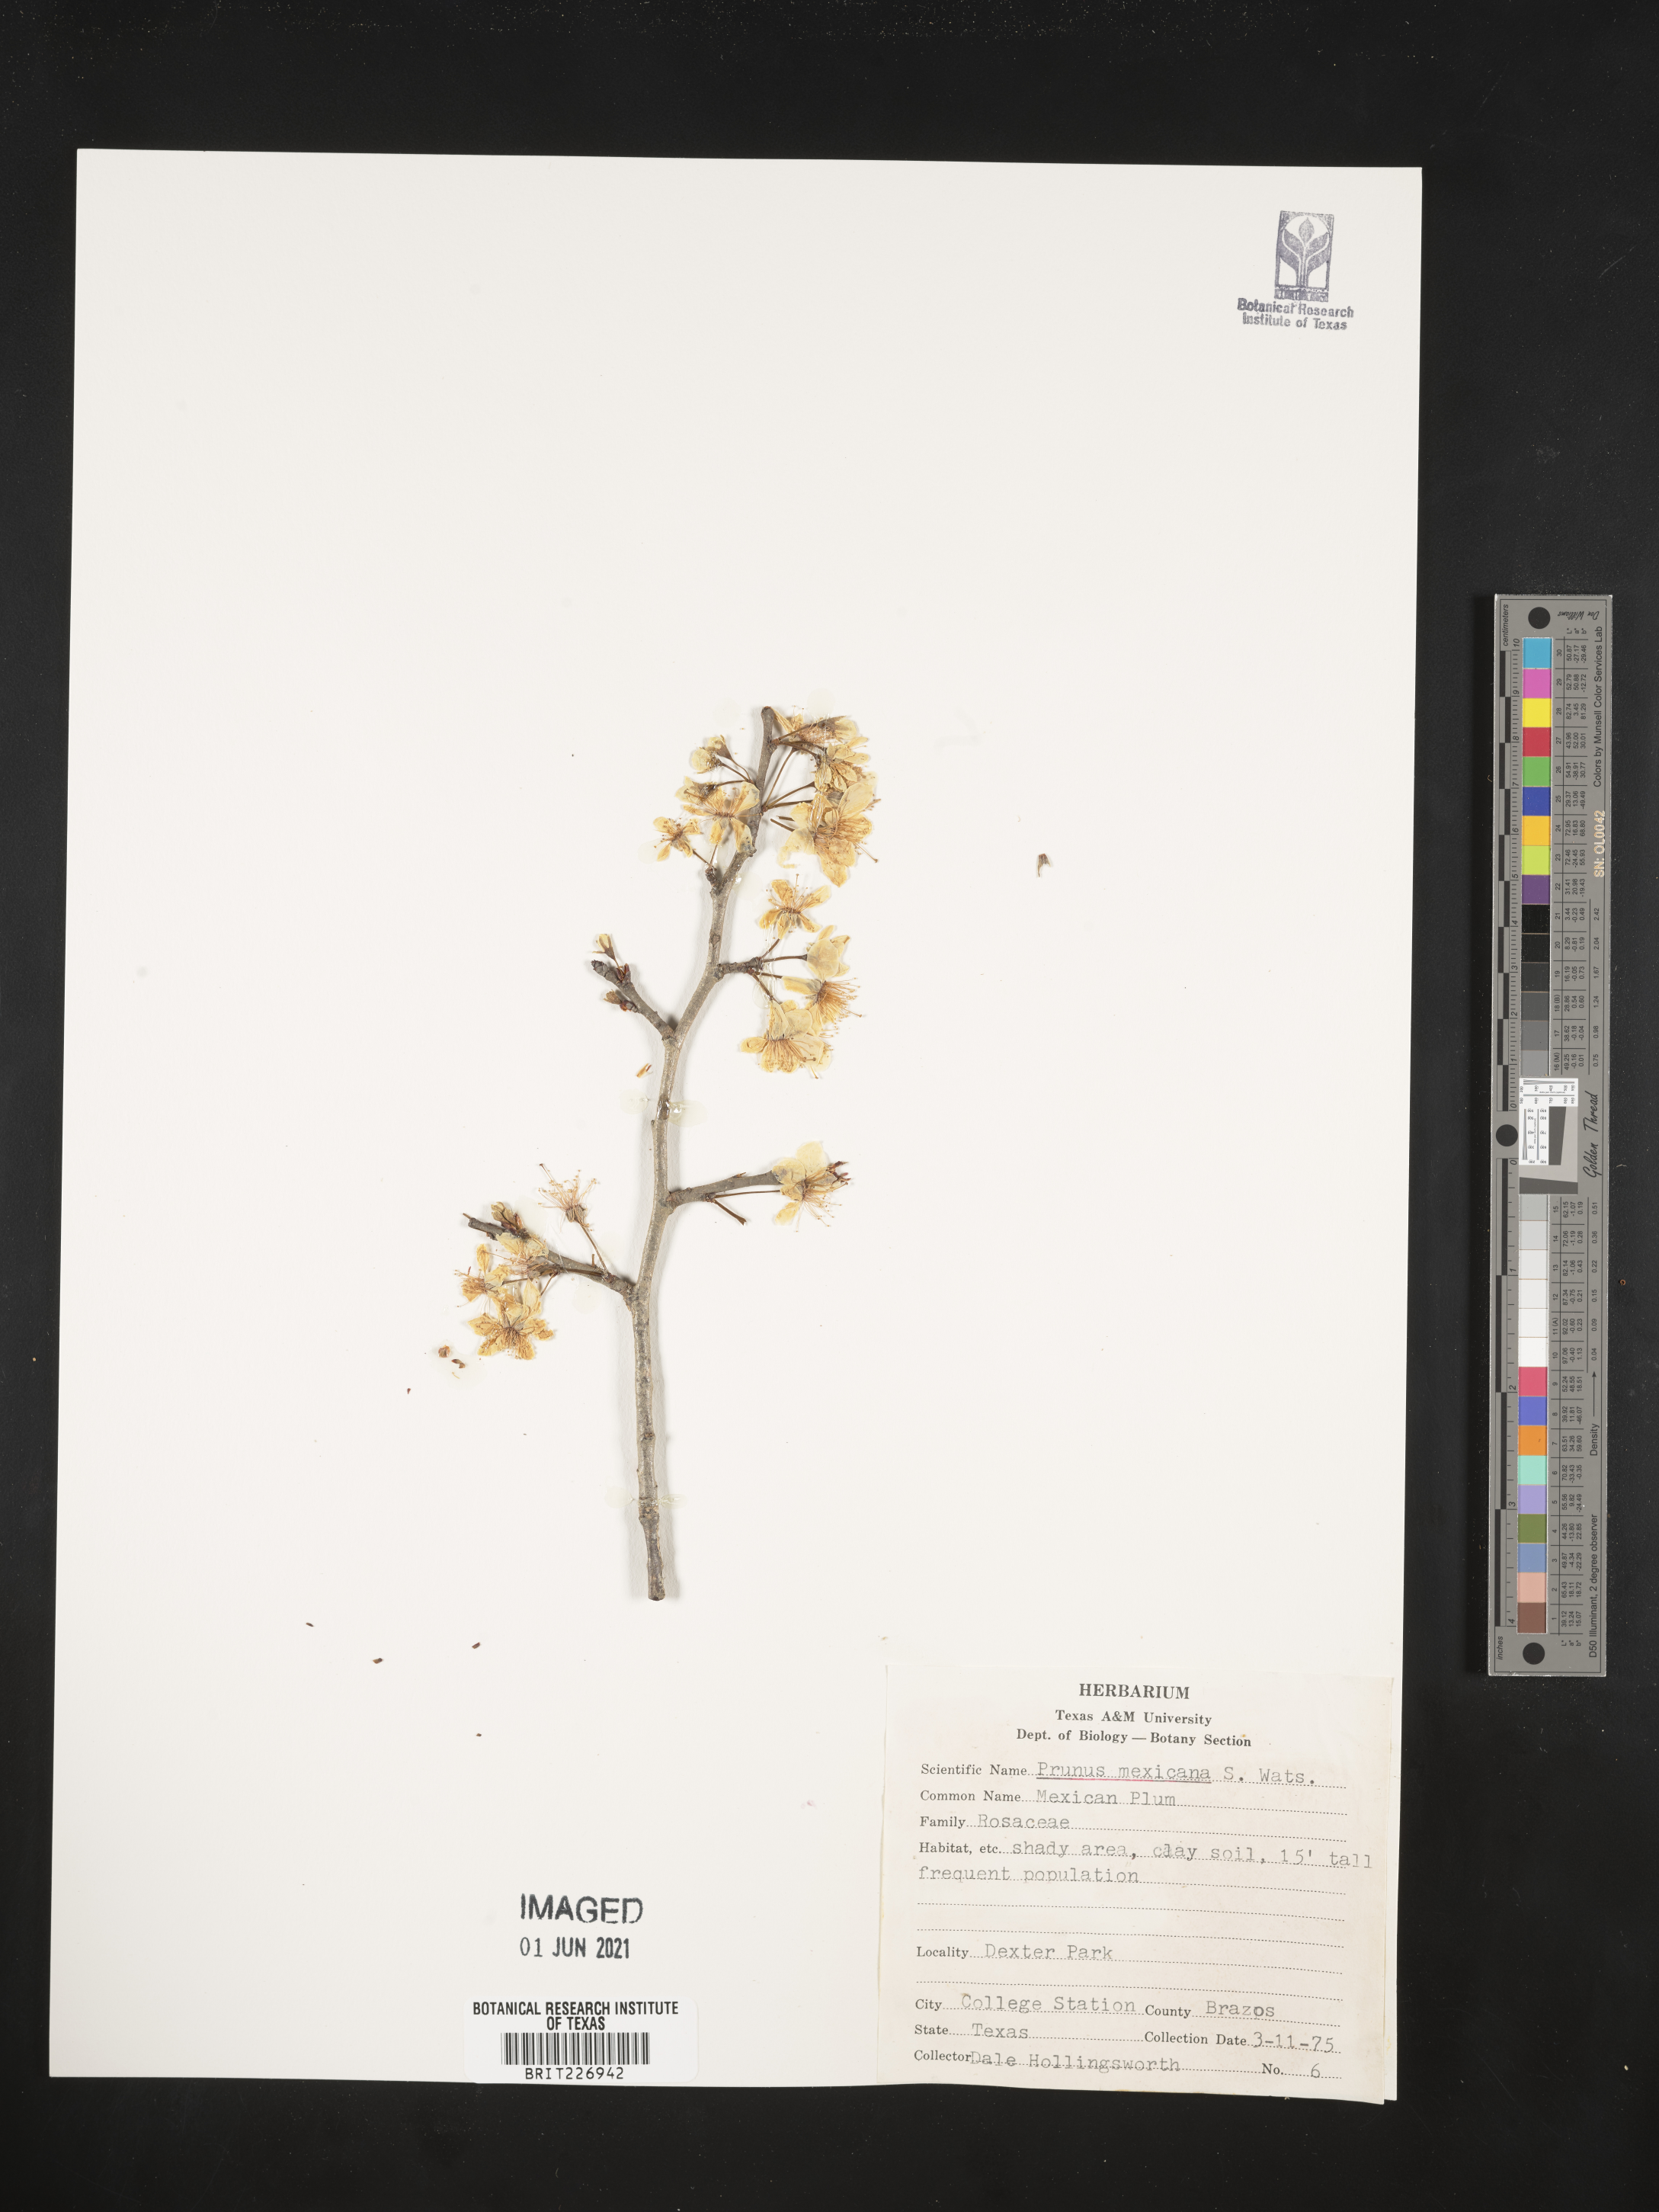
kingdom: Plantae
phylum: Tracheophyta
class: Magnoliopsida
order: Rosales
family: Rosaceae
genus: Prunus
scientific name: Prunus mexicana
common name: Mexican plum
